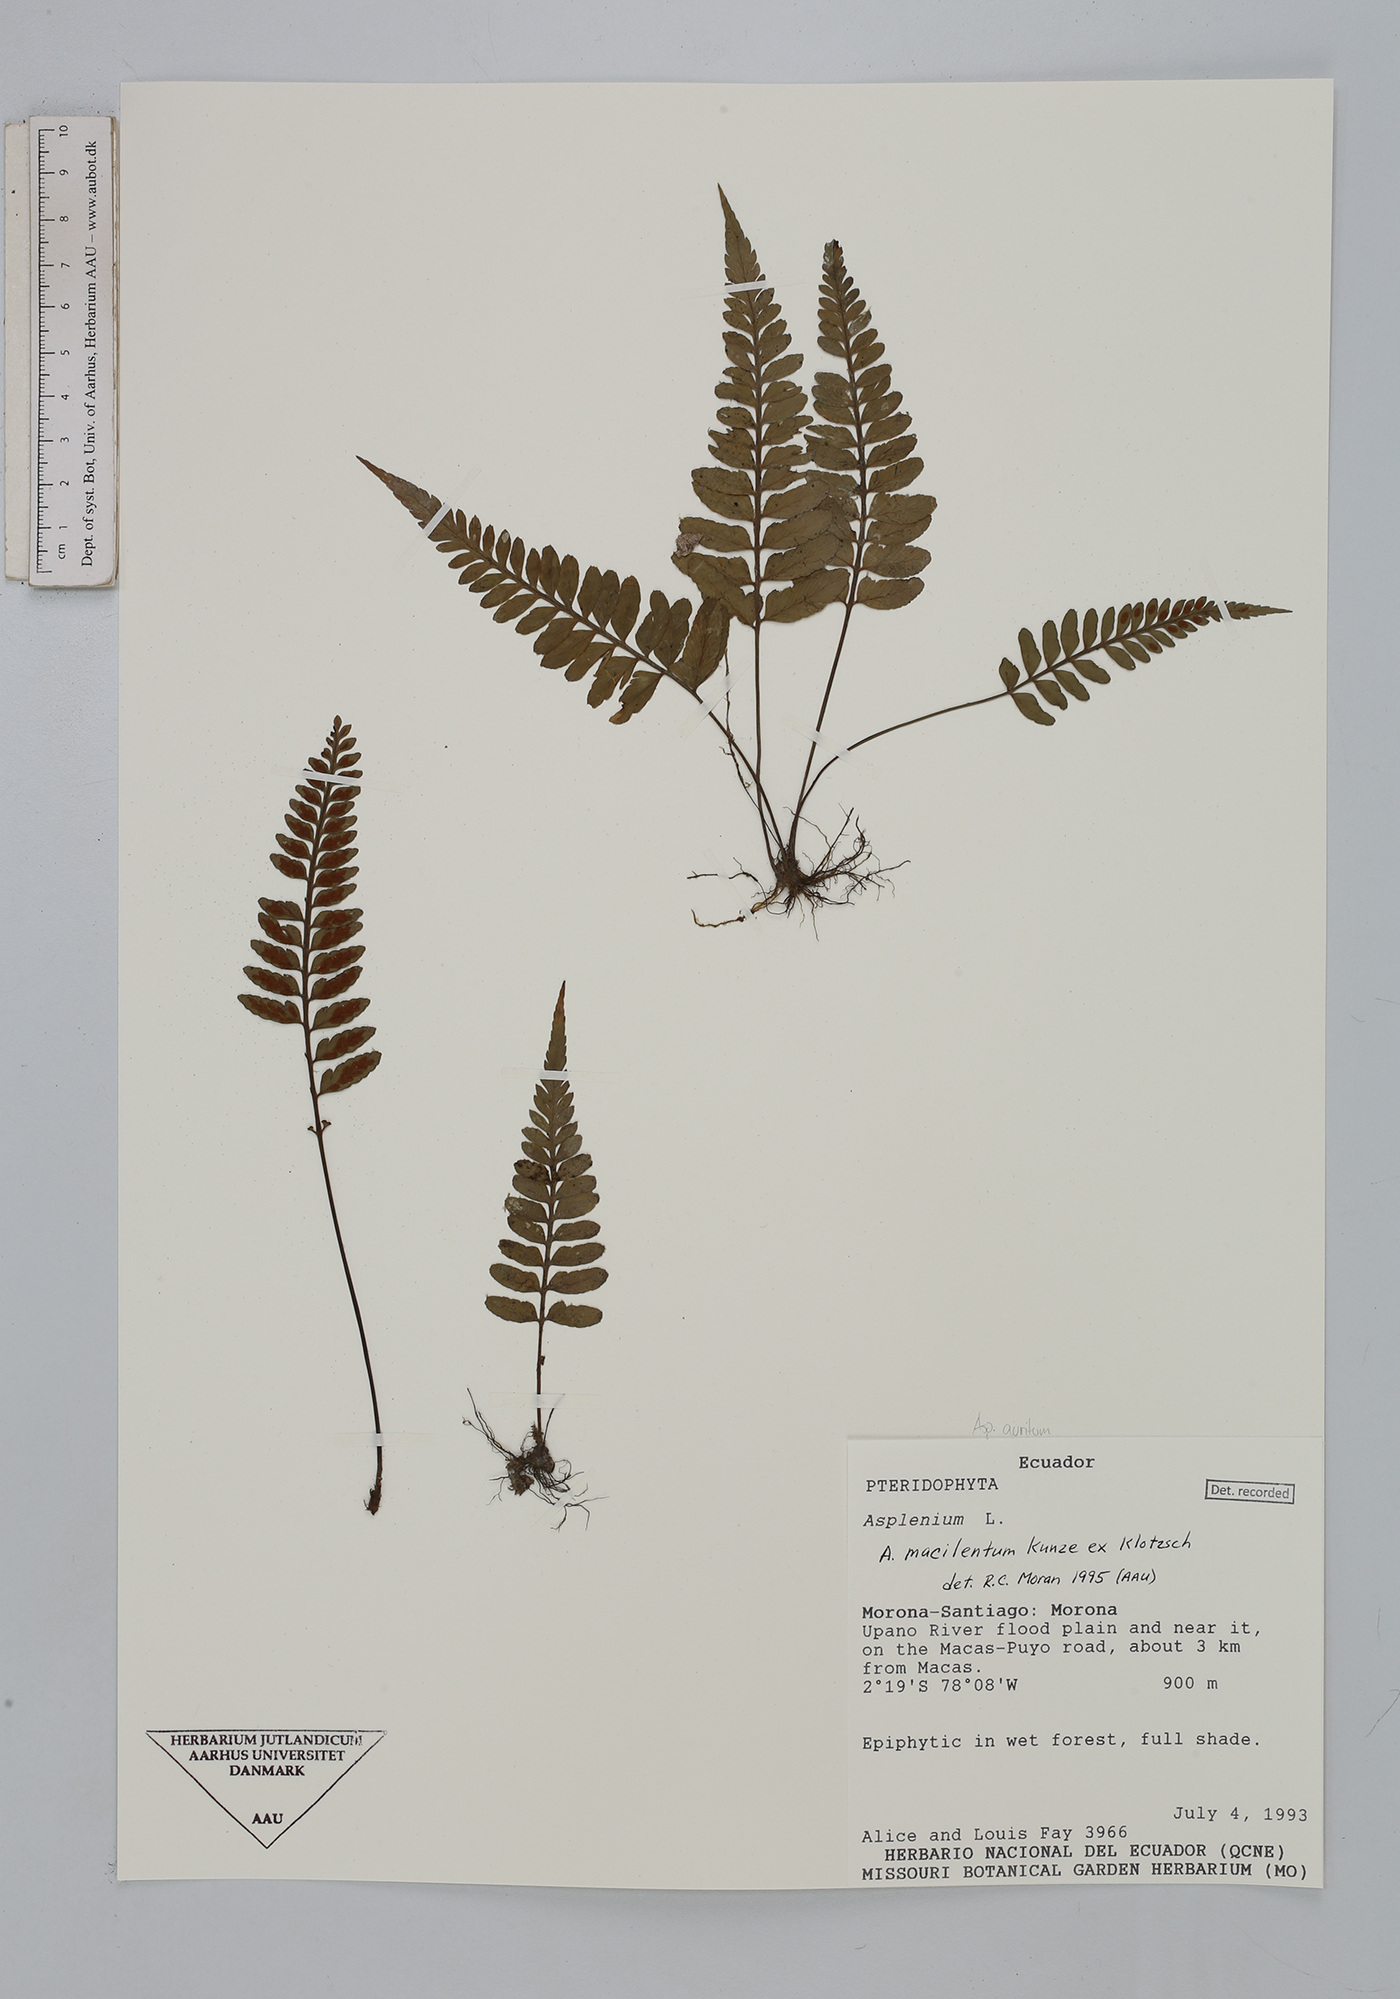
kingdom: Plantae
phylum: Tracheophyta
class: Polypodiopsida
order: Polypodiales
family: Aspleniaceae
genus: Asplenium
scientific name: Asplenium auritum
